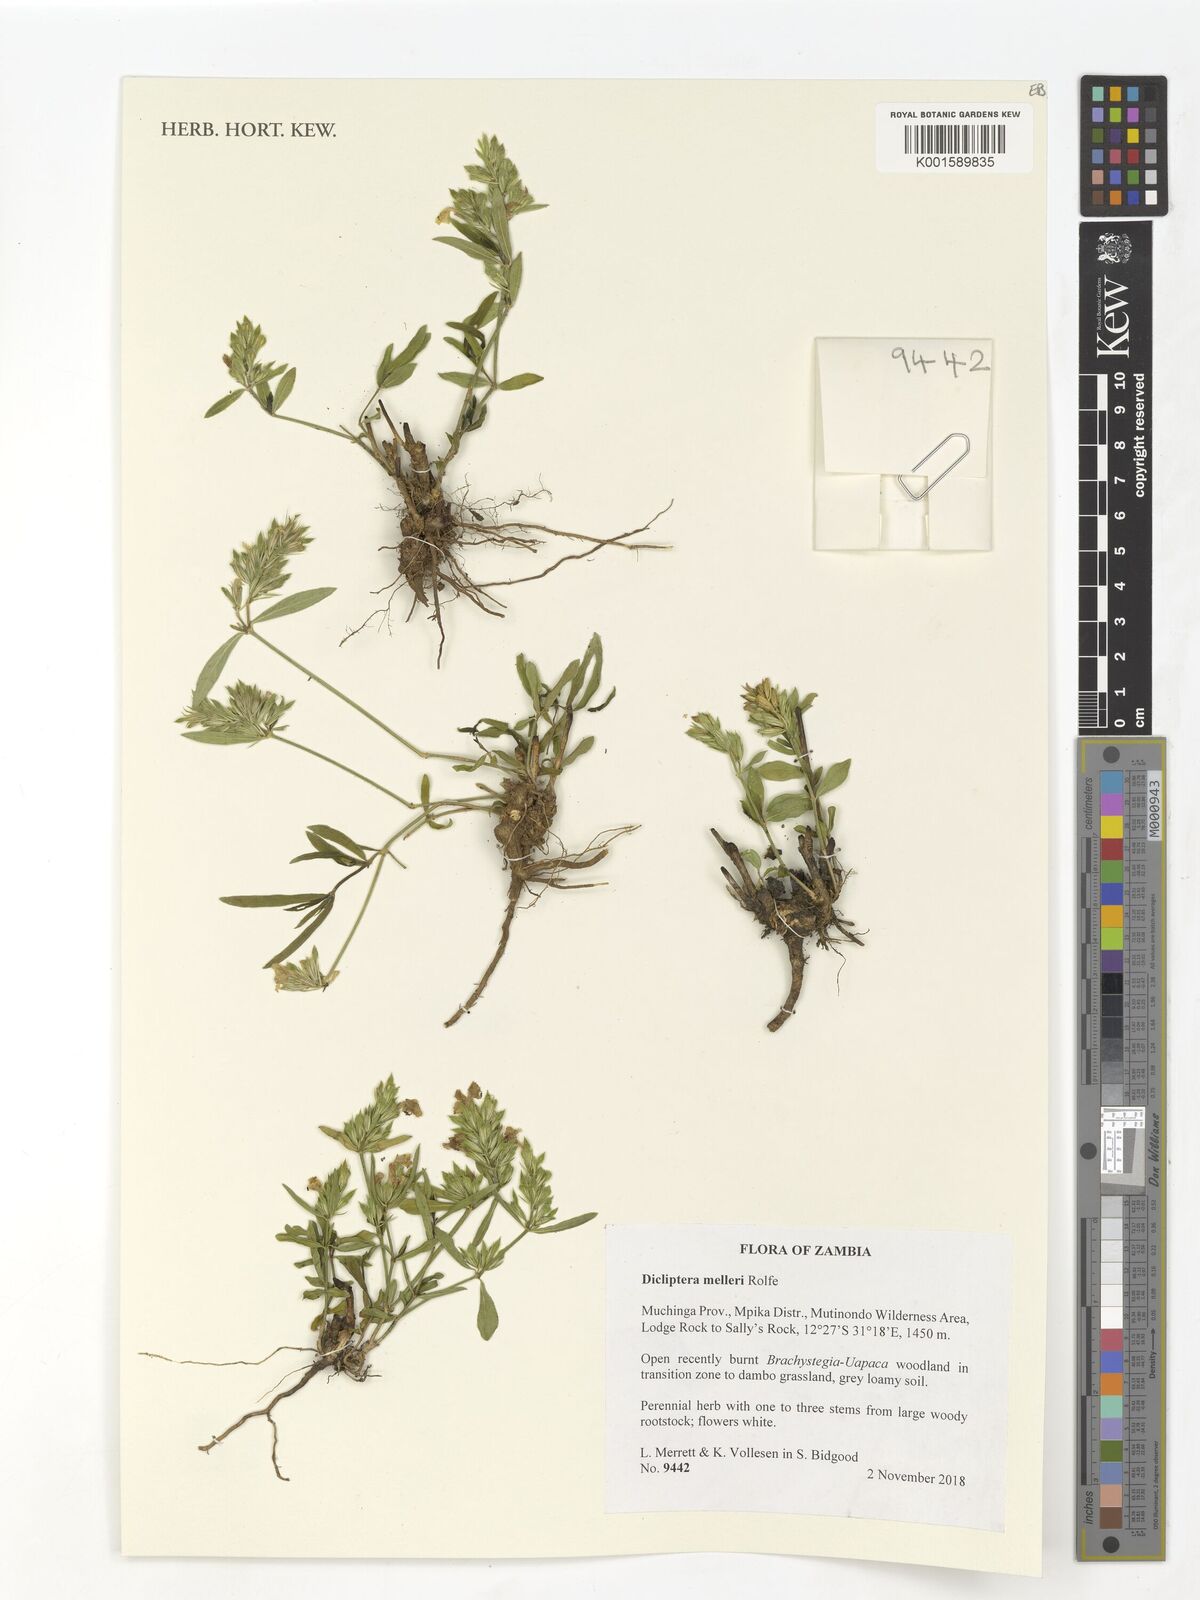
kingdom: Plantae
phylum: Tracheophyta
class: Magnoliopsida
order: Lamiales
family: Acanthaceae
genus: Dicliptera
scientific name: Dicliptera melleri
